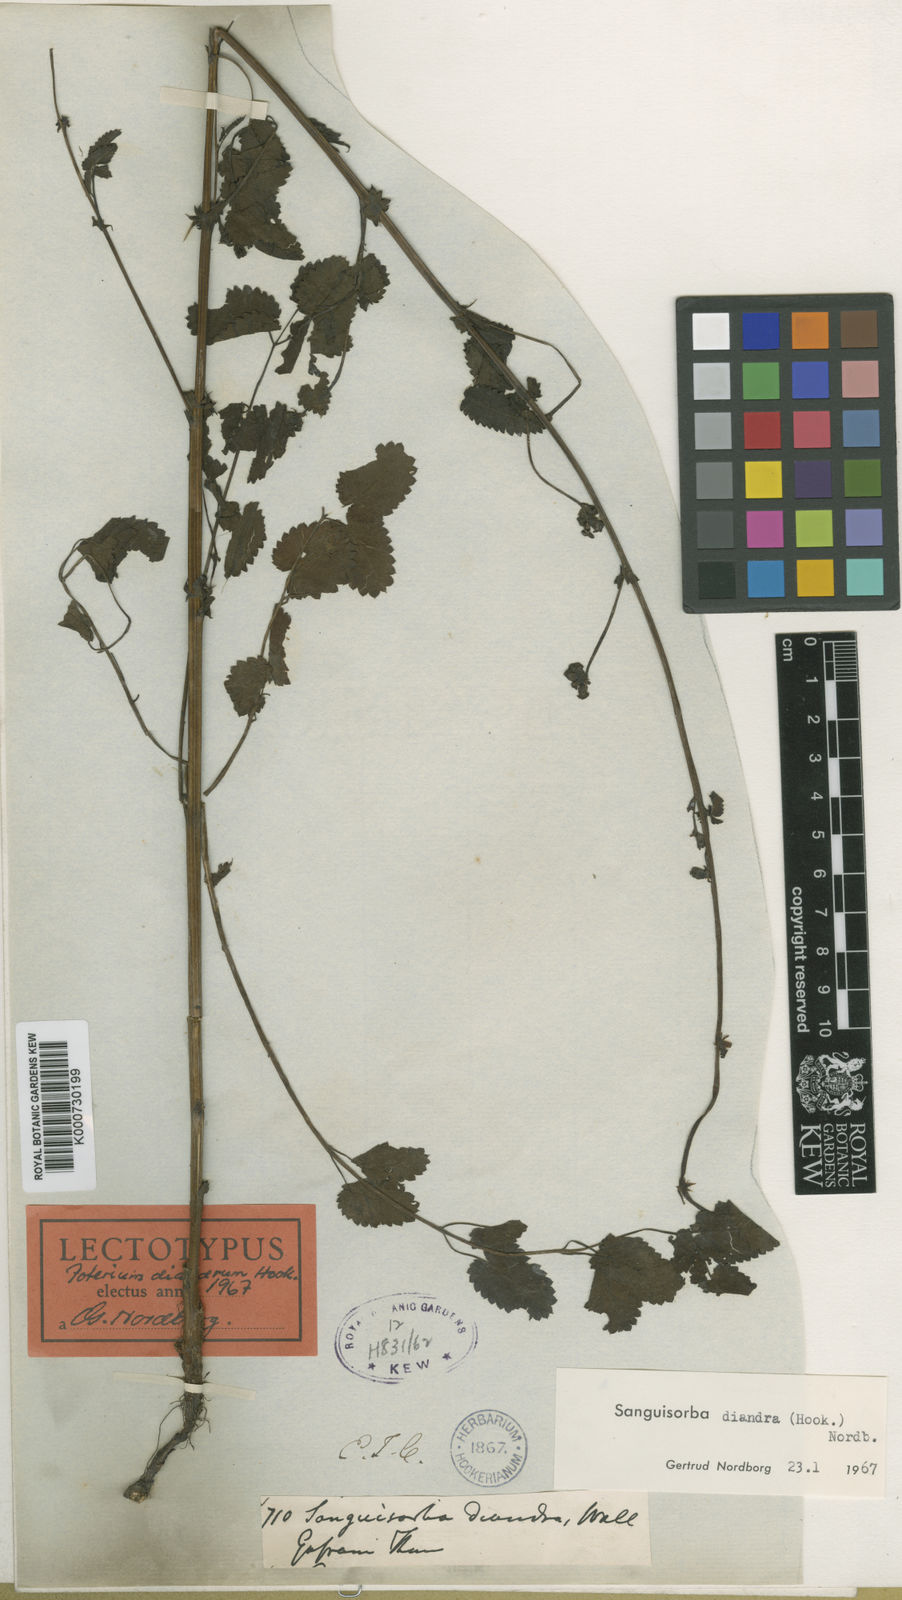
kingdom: Plantae
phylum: Tracheophyta
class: Magnoliopsida
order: Rosales
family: Rosaceae
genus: Poterium
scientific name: Poterium diandrum
